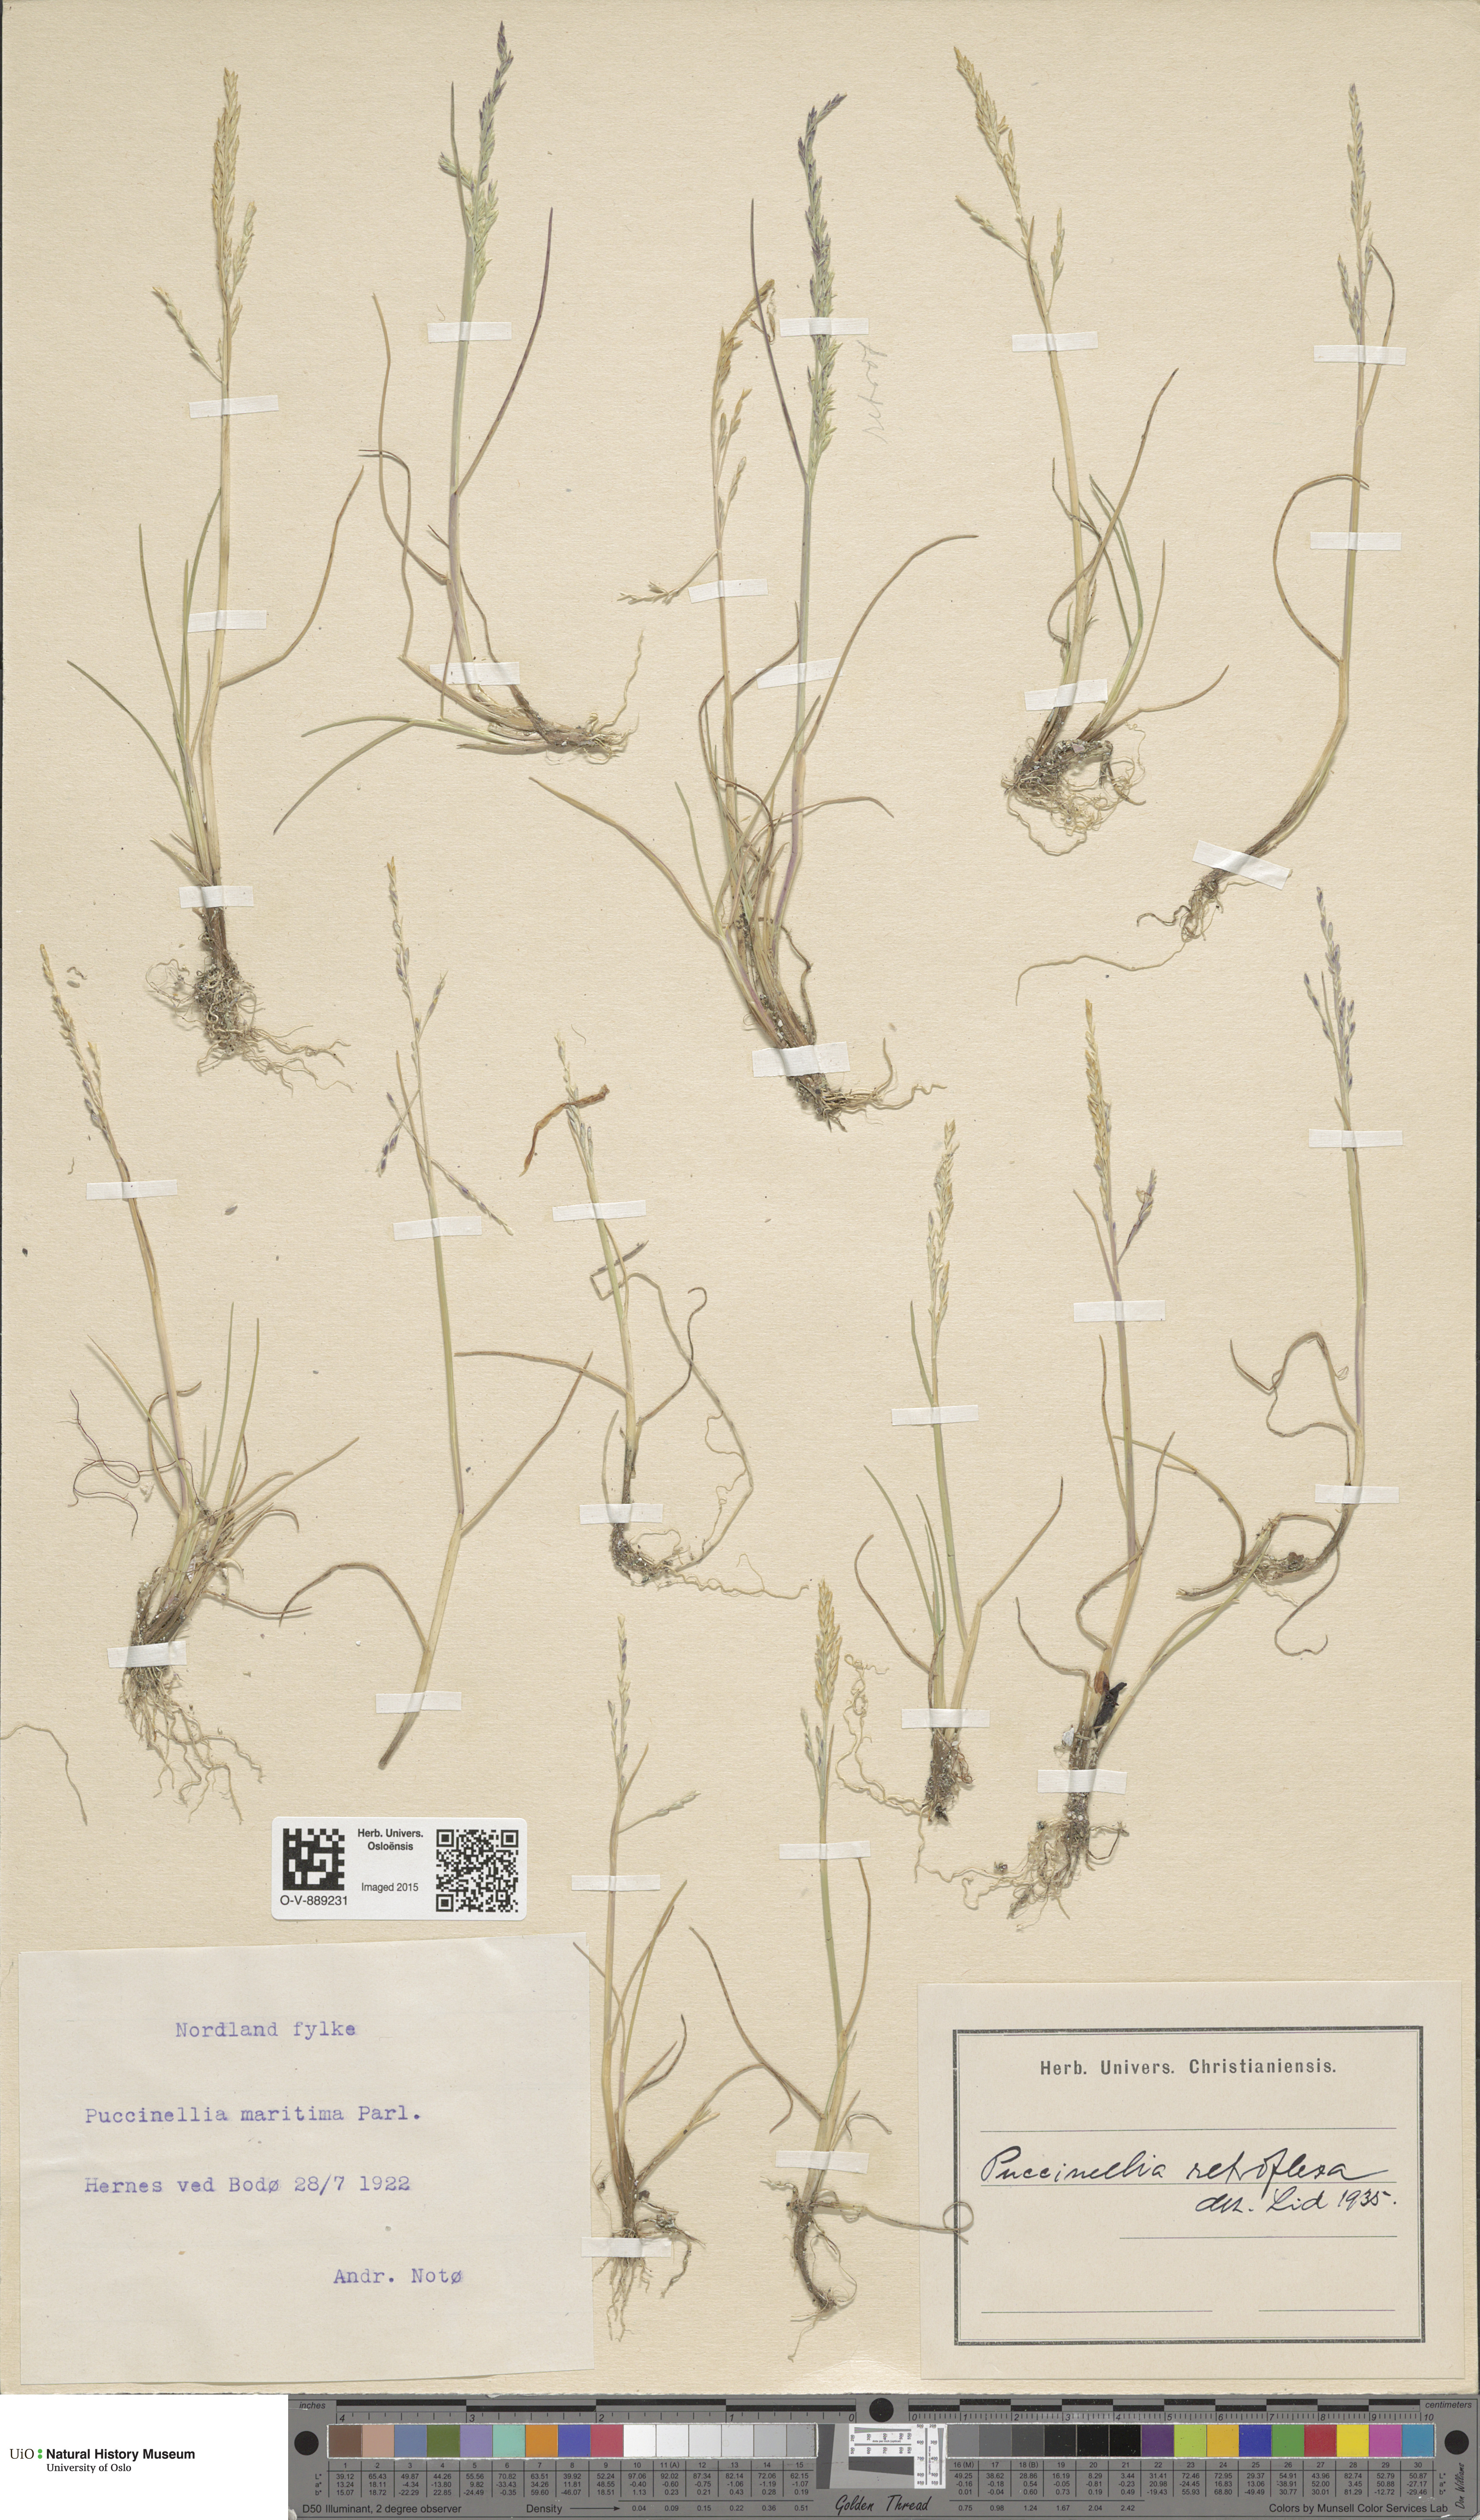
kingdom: Plantae
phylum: Tracheophyta
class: Liliopsida
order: Poales
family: Poaceae
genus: Puccinellia
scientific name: Puccinellia distans
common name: Weeping alkaligrass
